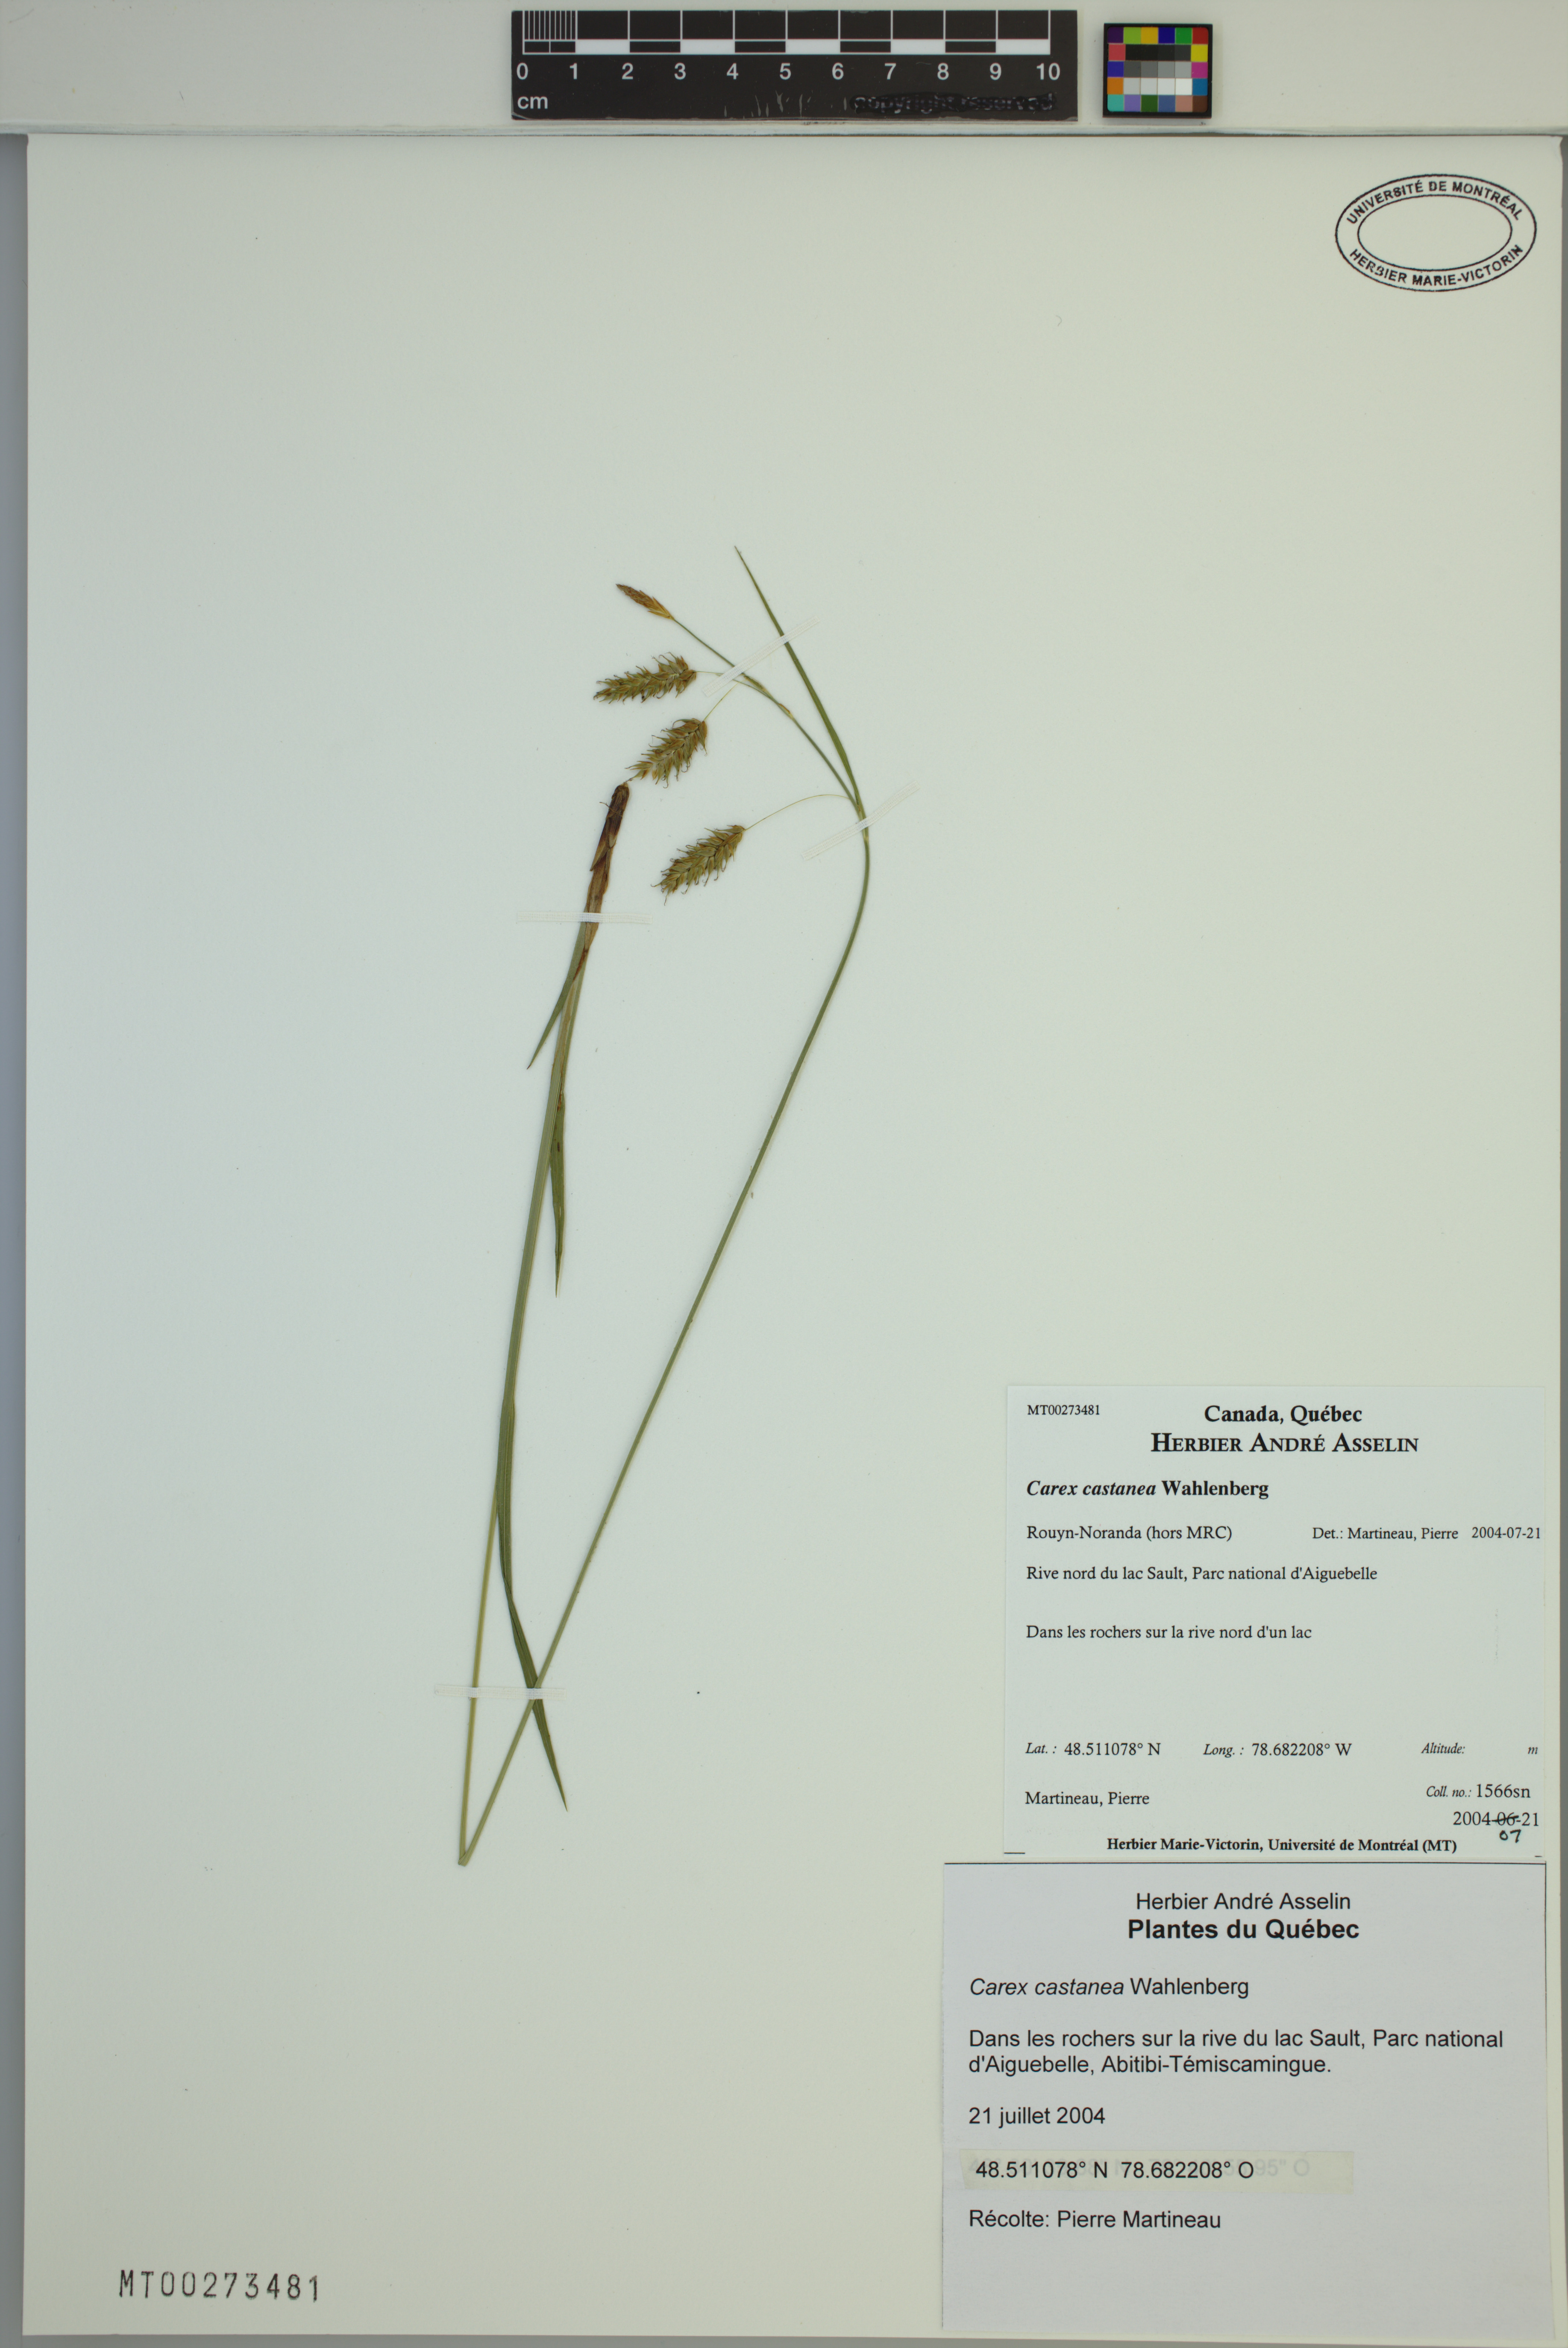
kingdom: Plantae
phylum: Tracheophyta
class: Liliopsida
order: Poales
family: Cyperaceae
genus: Carex
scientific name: Carex castanea
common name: Chestnut sedge
